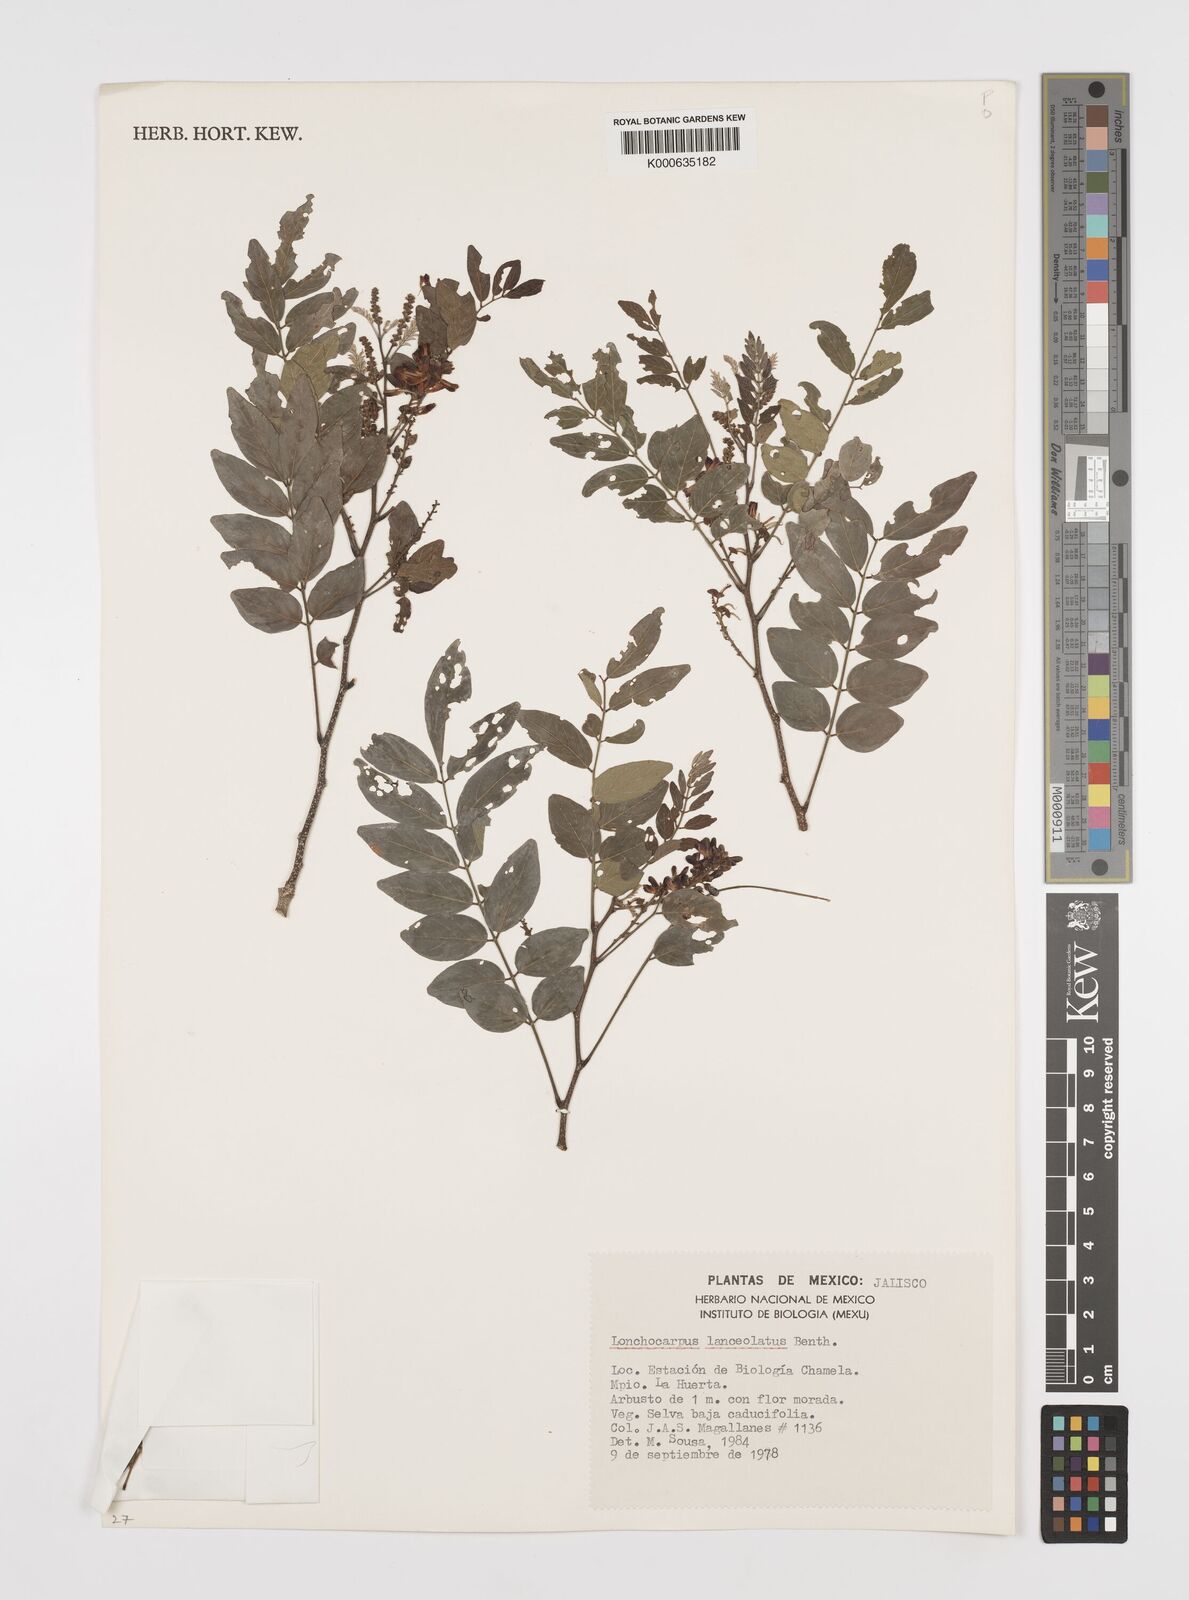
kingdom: Plantae
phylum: Tracheophyta
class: Magnoliopsida
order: Fabales
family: Fabaceae
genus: Lonchocarpus
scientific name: Lonchocarpus lanceolatus
